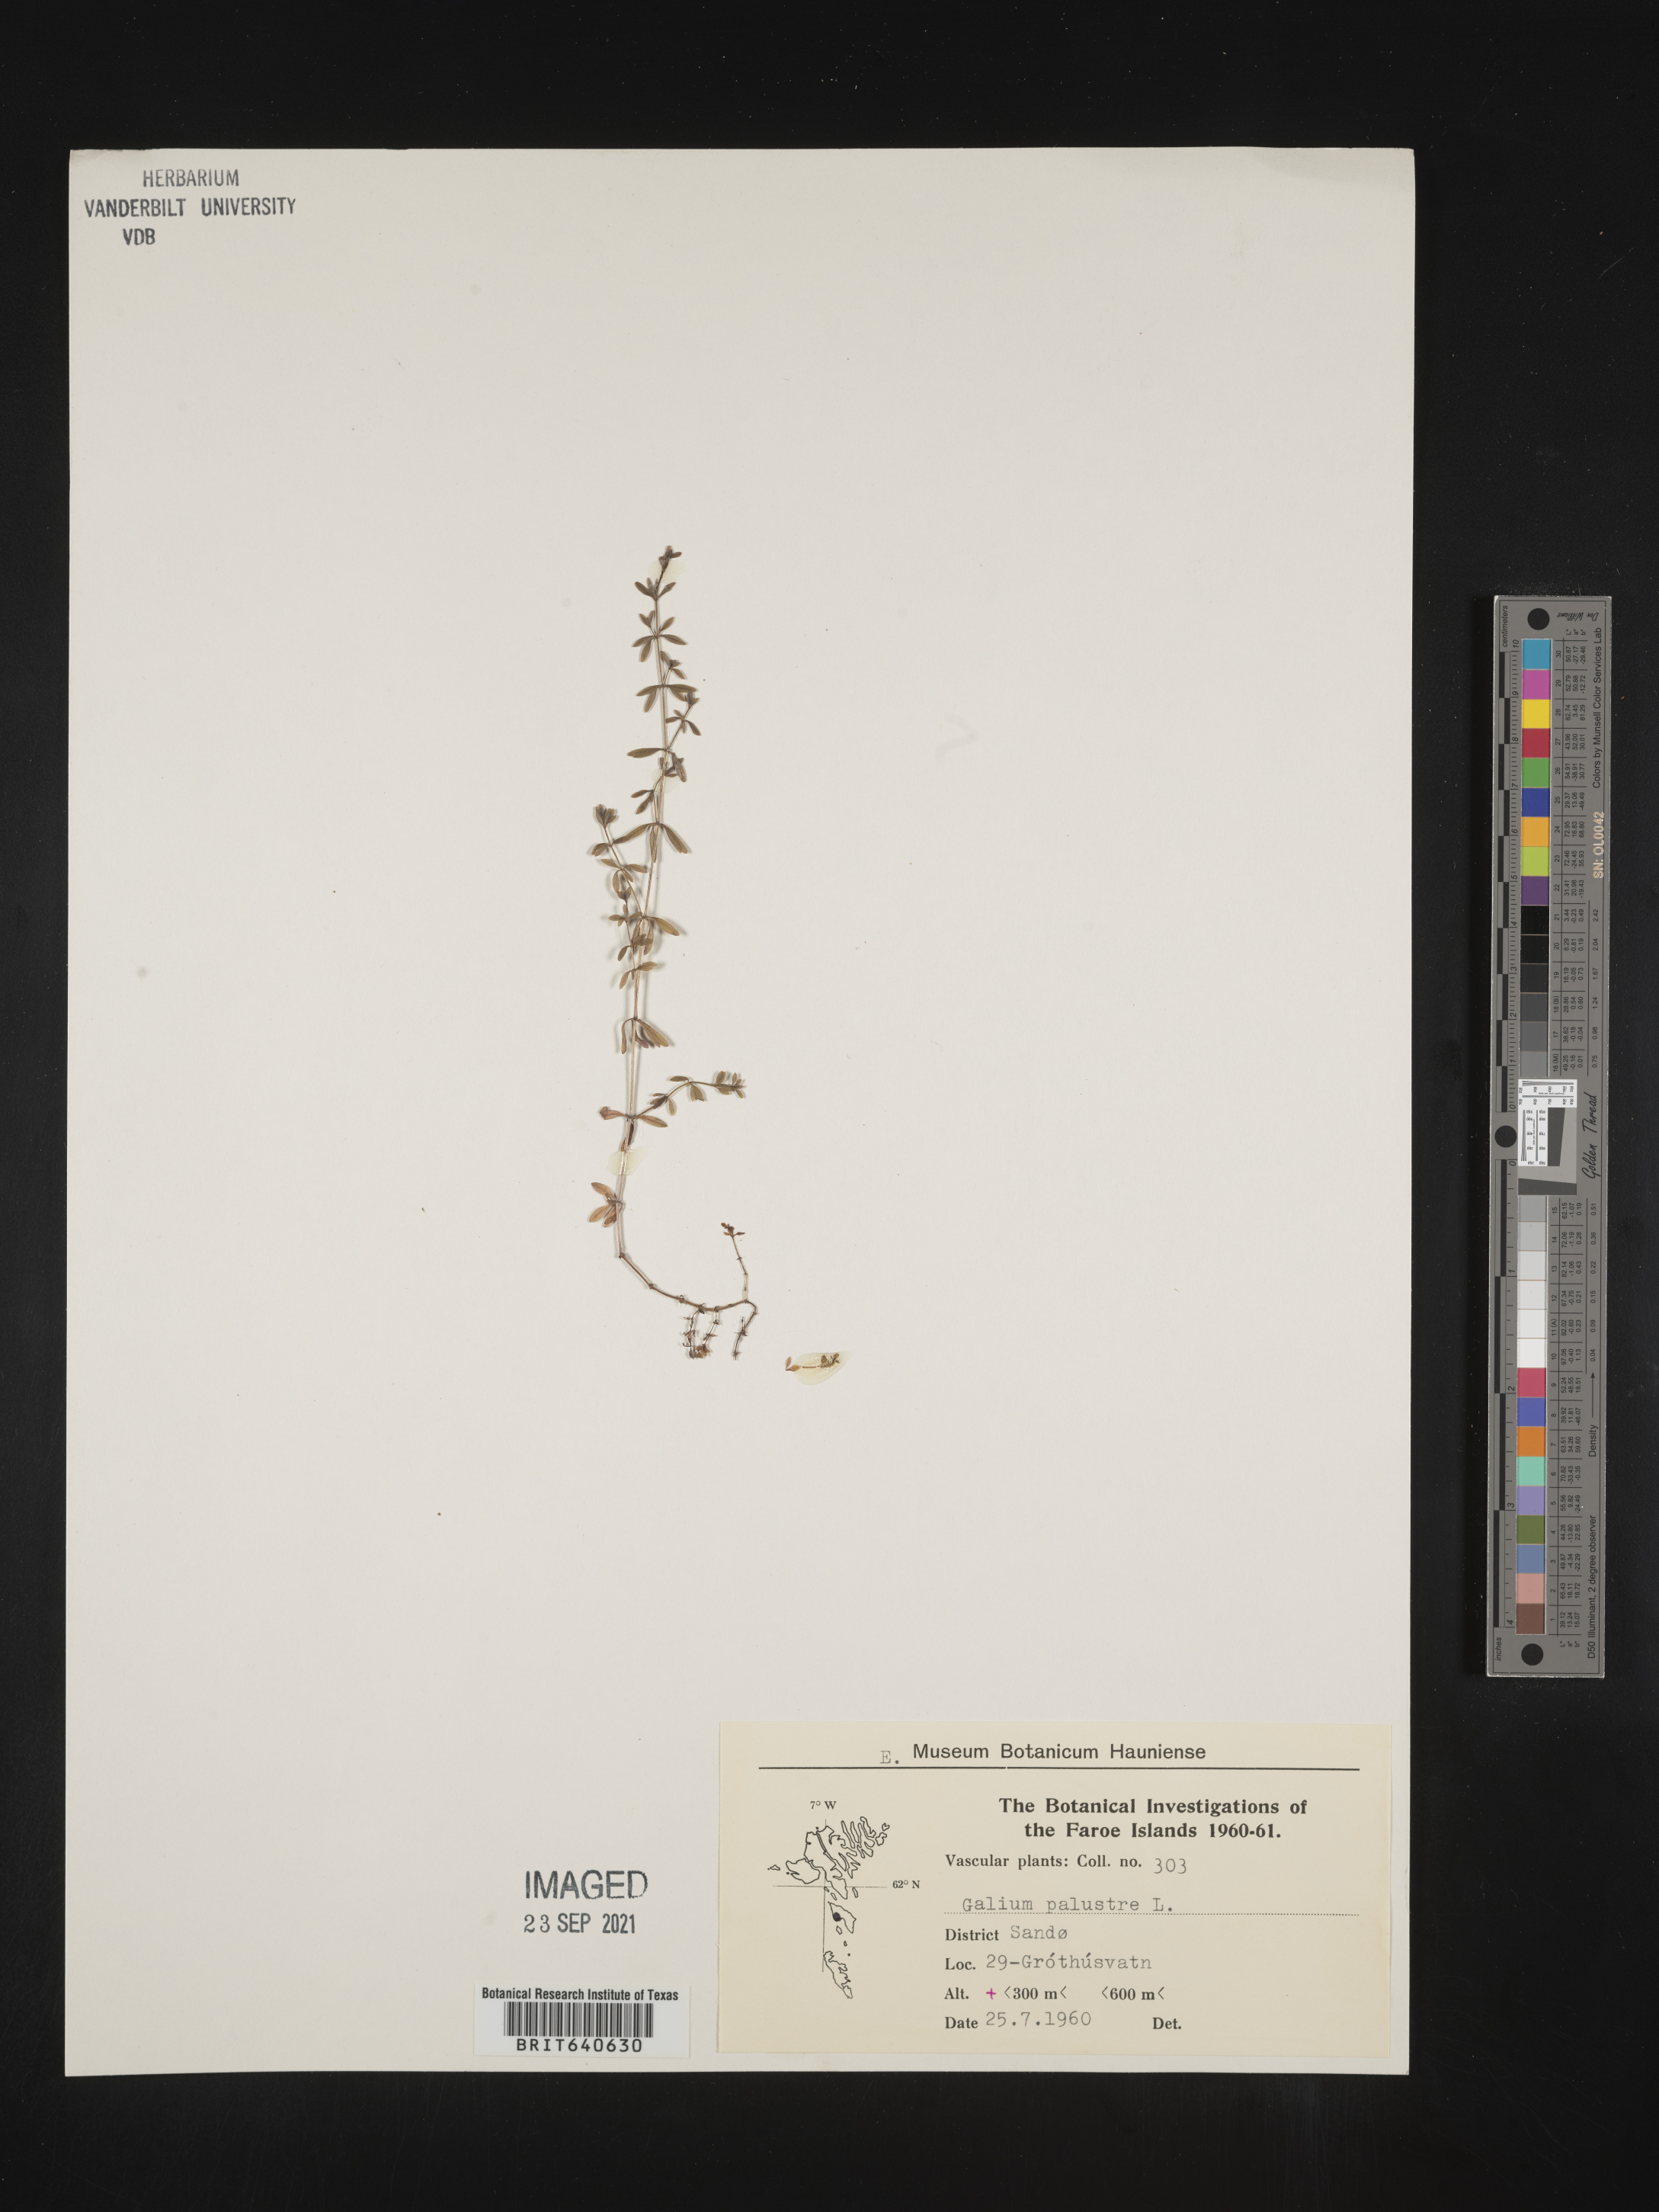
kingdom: Plantae
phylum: Tracheophyta
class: Magnoliopsida
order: Gentianales
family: Rubiaceae
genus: Galium
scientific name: Galium
